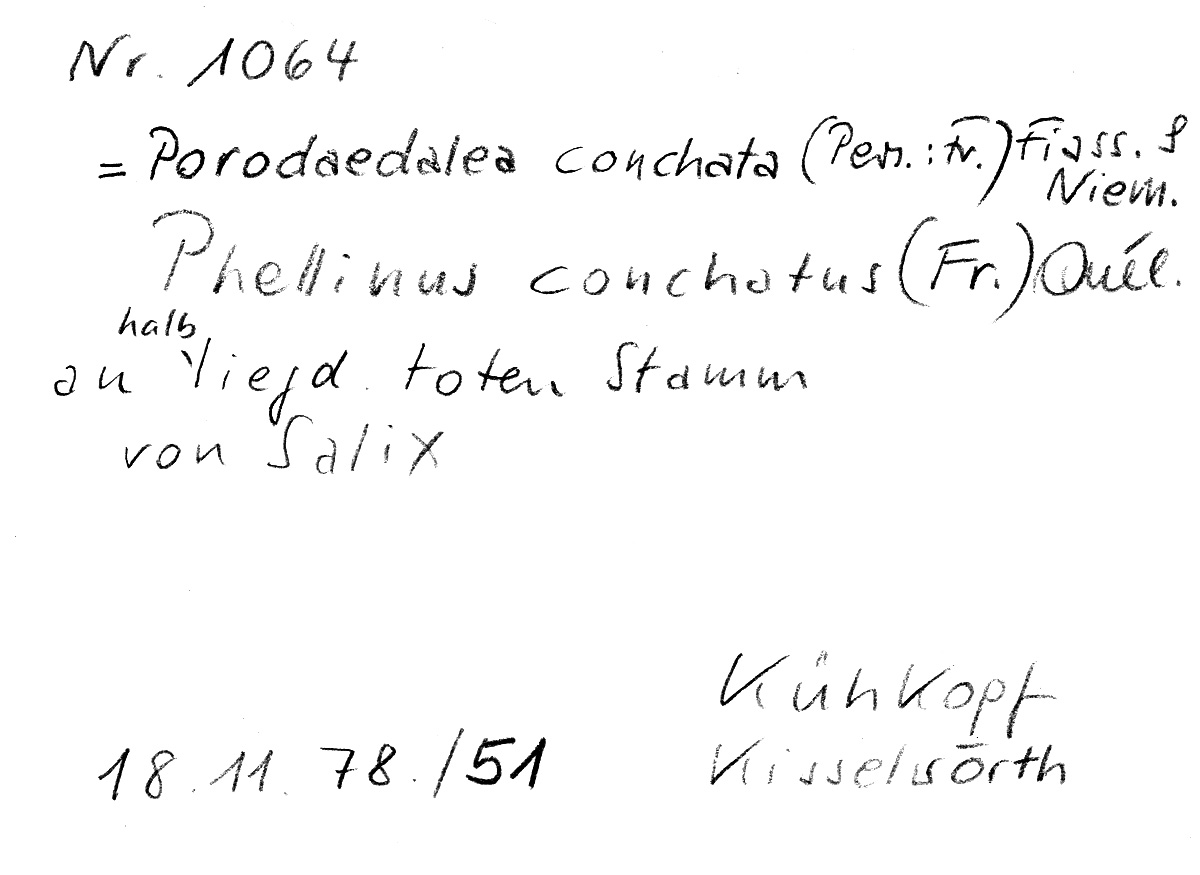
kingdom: Fungi
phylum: Basidiomycota
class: Agaricomycetes
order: Hymenochaetales
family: Hymenochaetaceae
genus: Phellinopsis
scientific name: Phellinopsis conchata
